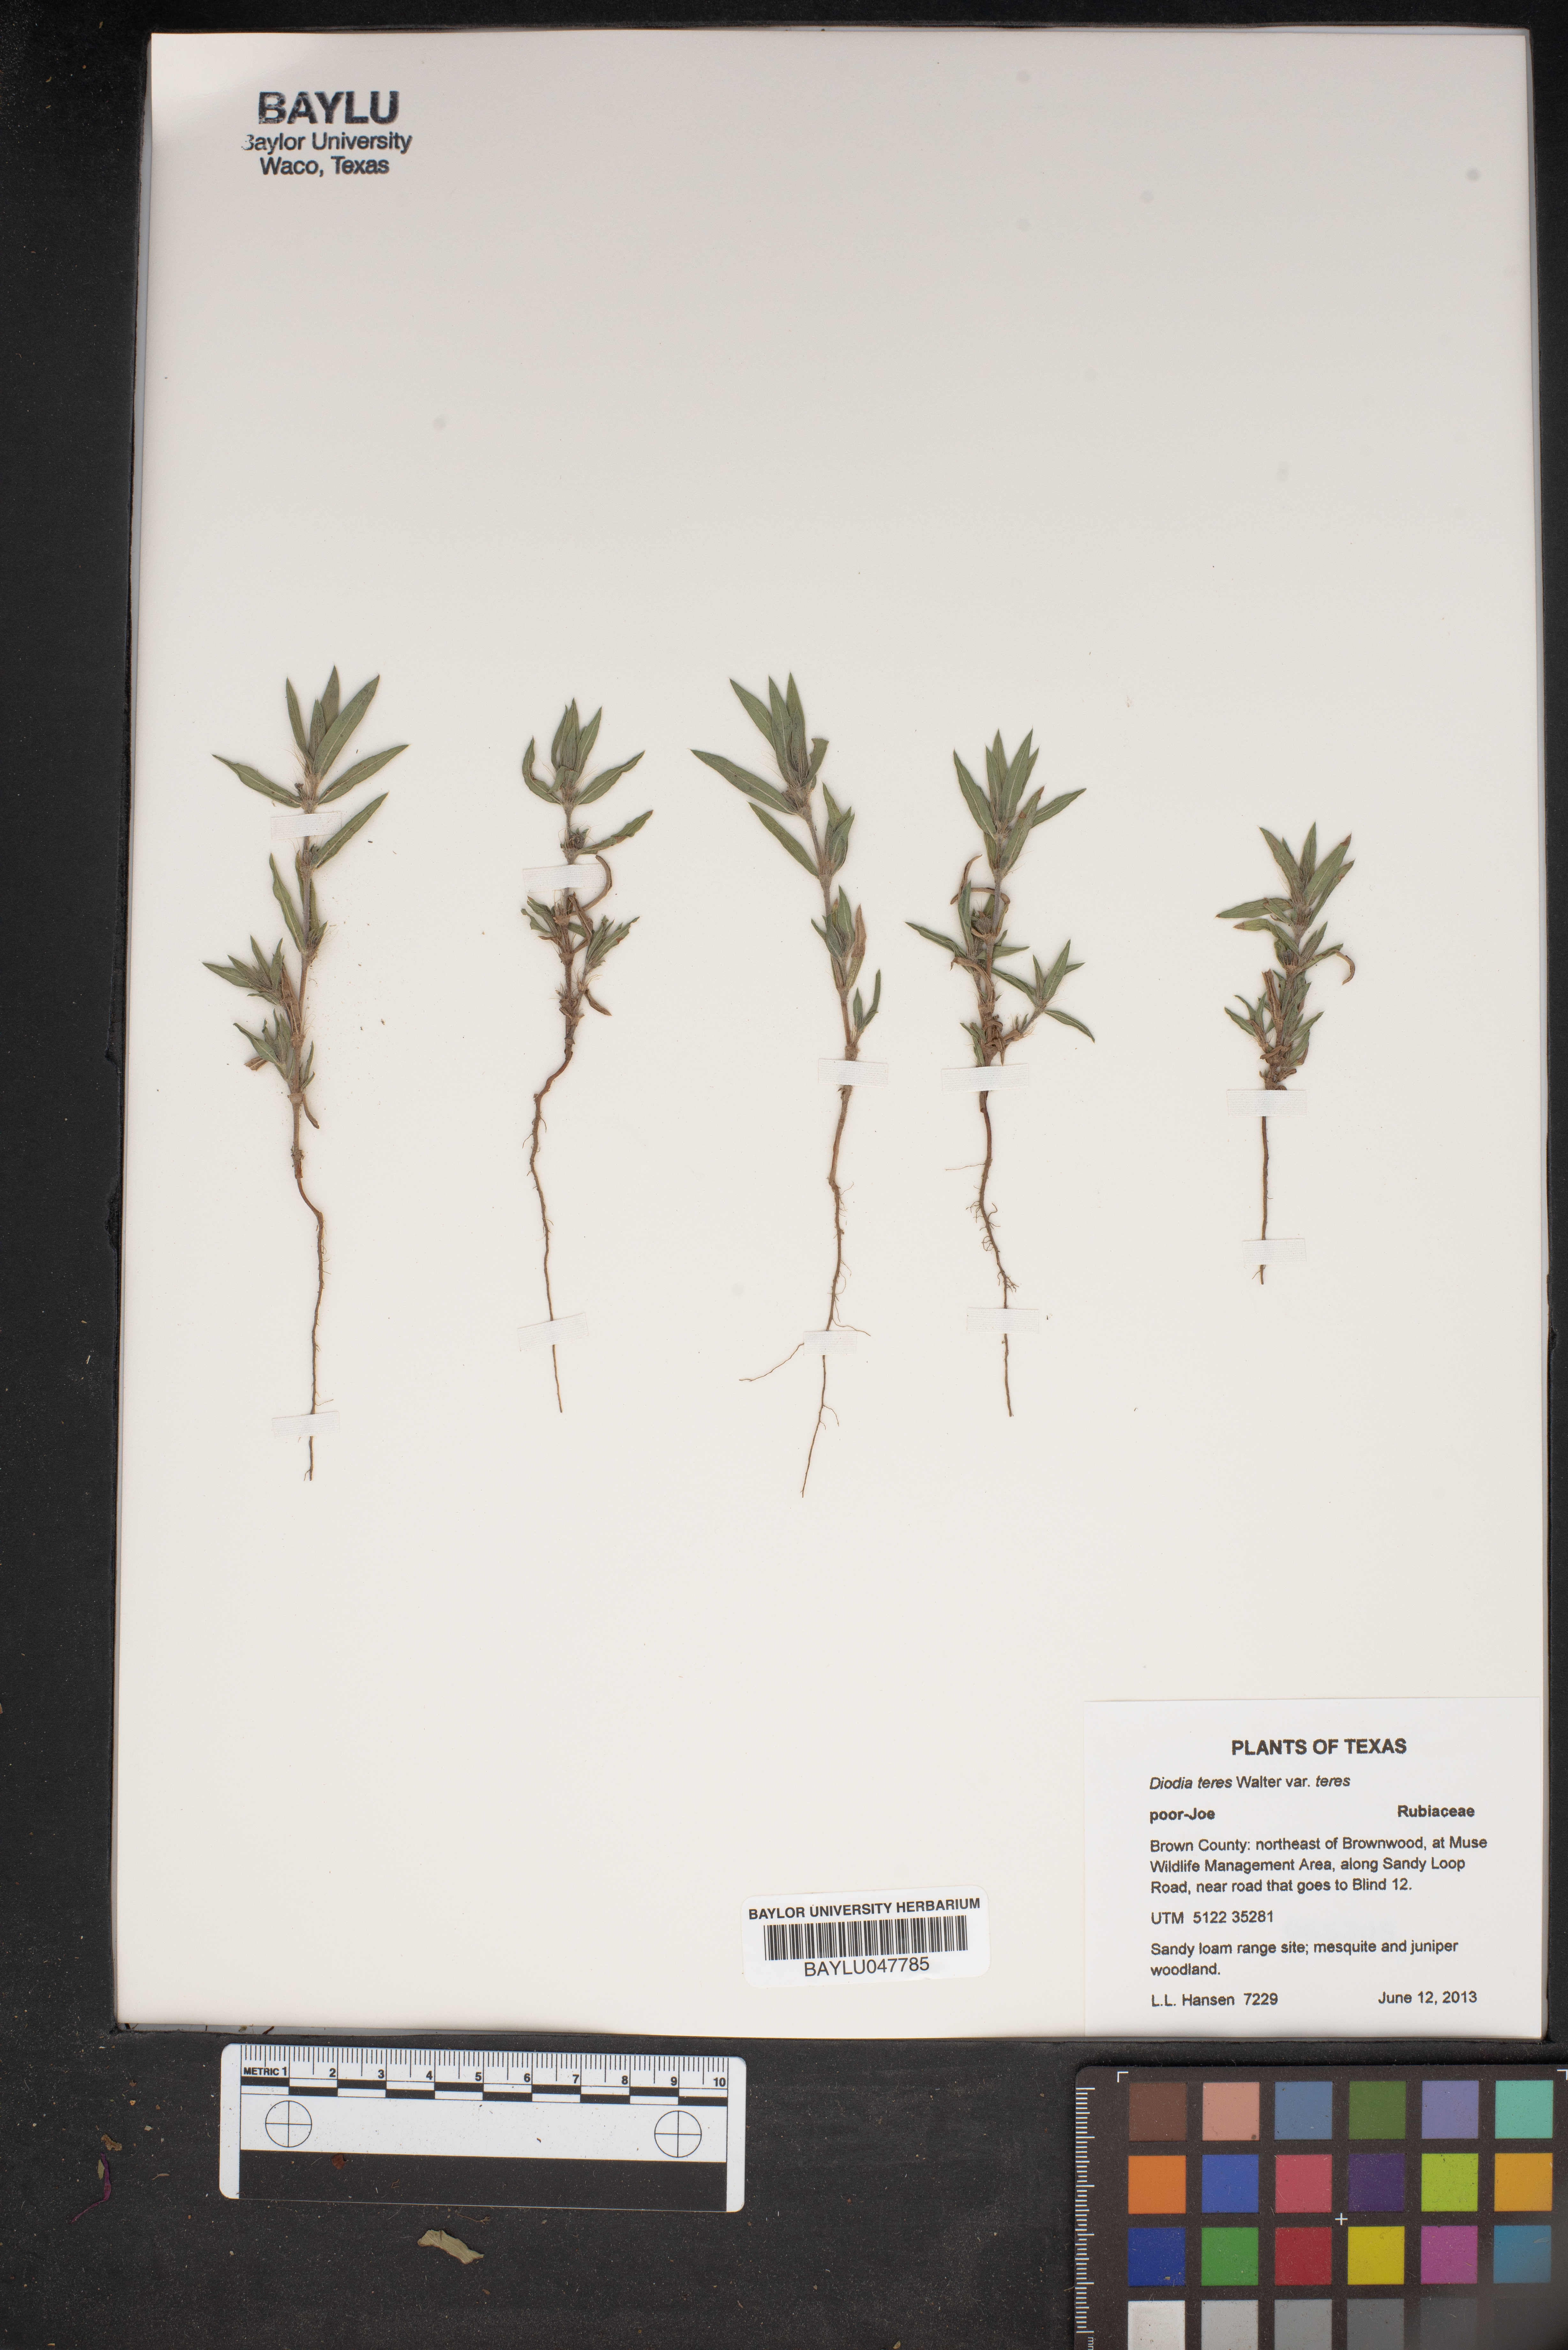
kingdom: Plantae
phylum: Tracheophyta
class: Magnoliopsida
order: Gentianales
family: Rubiaceae
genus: Hexasepalum
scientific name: Hexasepalum teres
